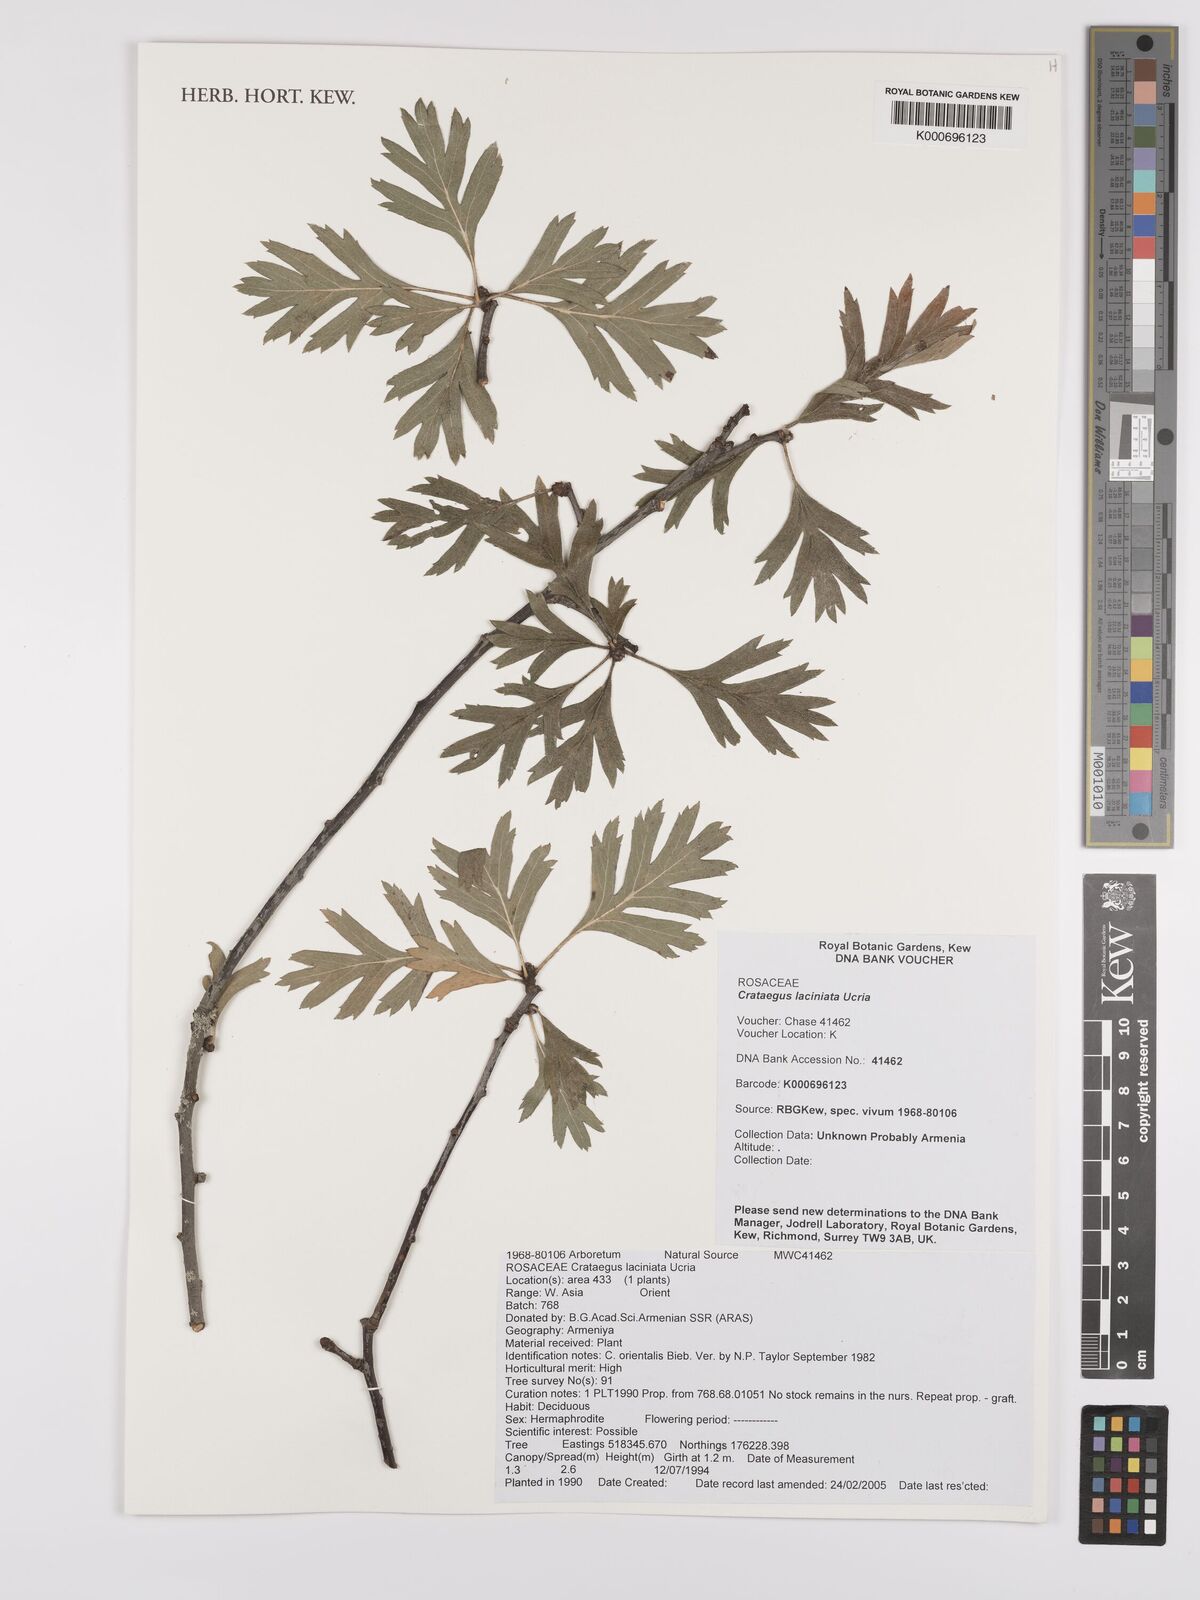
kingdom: Plantae
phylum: Tracheophyta
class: Magnoliopsida
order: Rosales
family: Rosaceae
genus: Crataegus
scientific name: Crataegus laciniata
